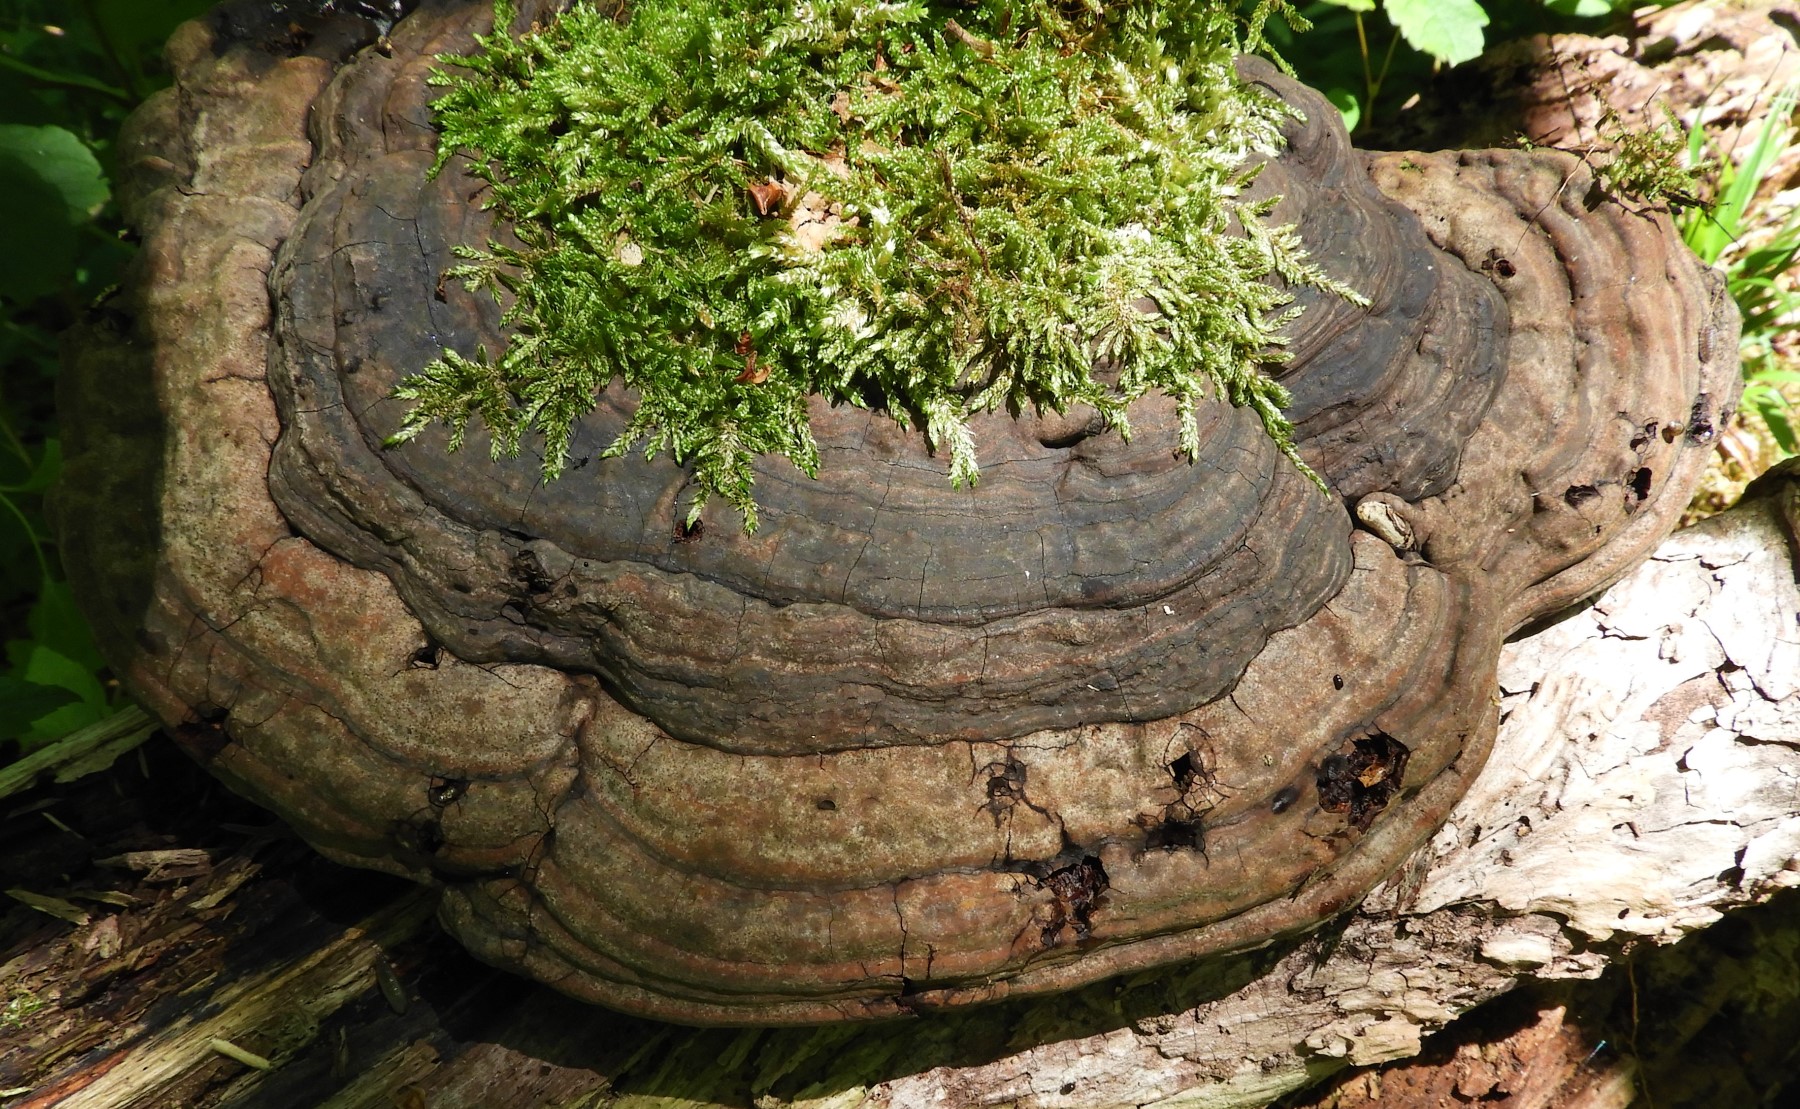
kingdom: Fungi
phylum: Basidiomycota
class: Agaricomycetes
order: Polyporales
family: Polyporaceae
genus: Ganoderma
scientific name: Ganoderma applanatum
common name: flad lakporesvamp
